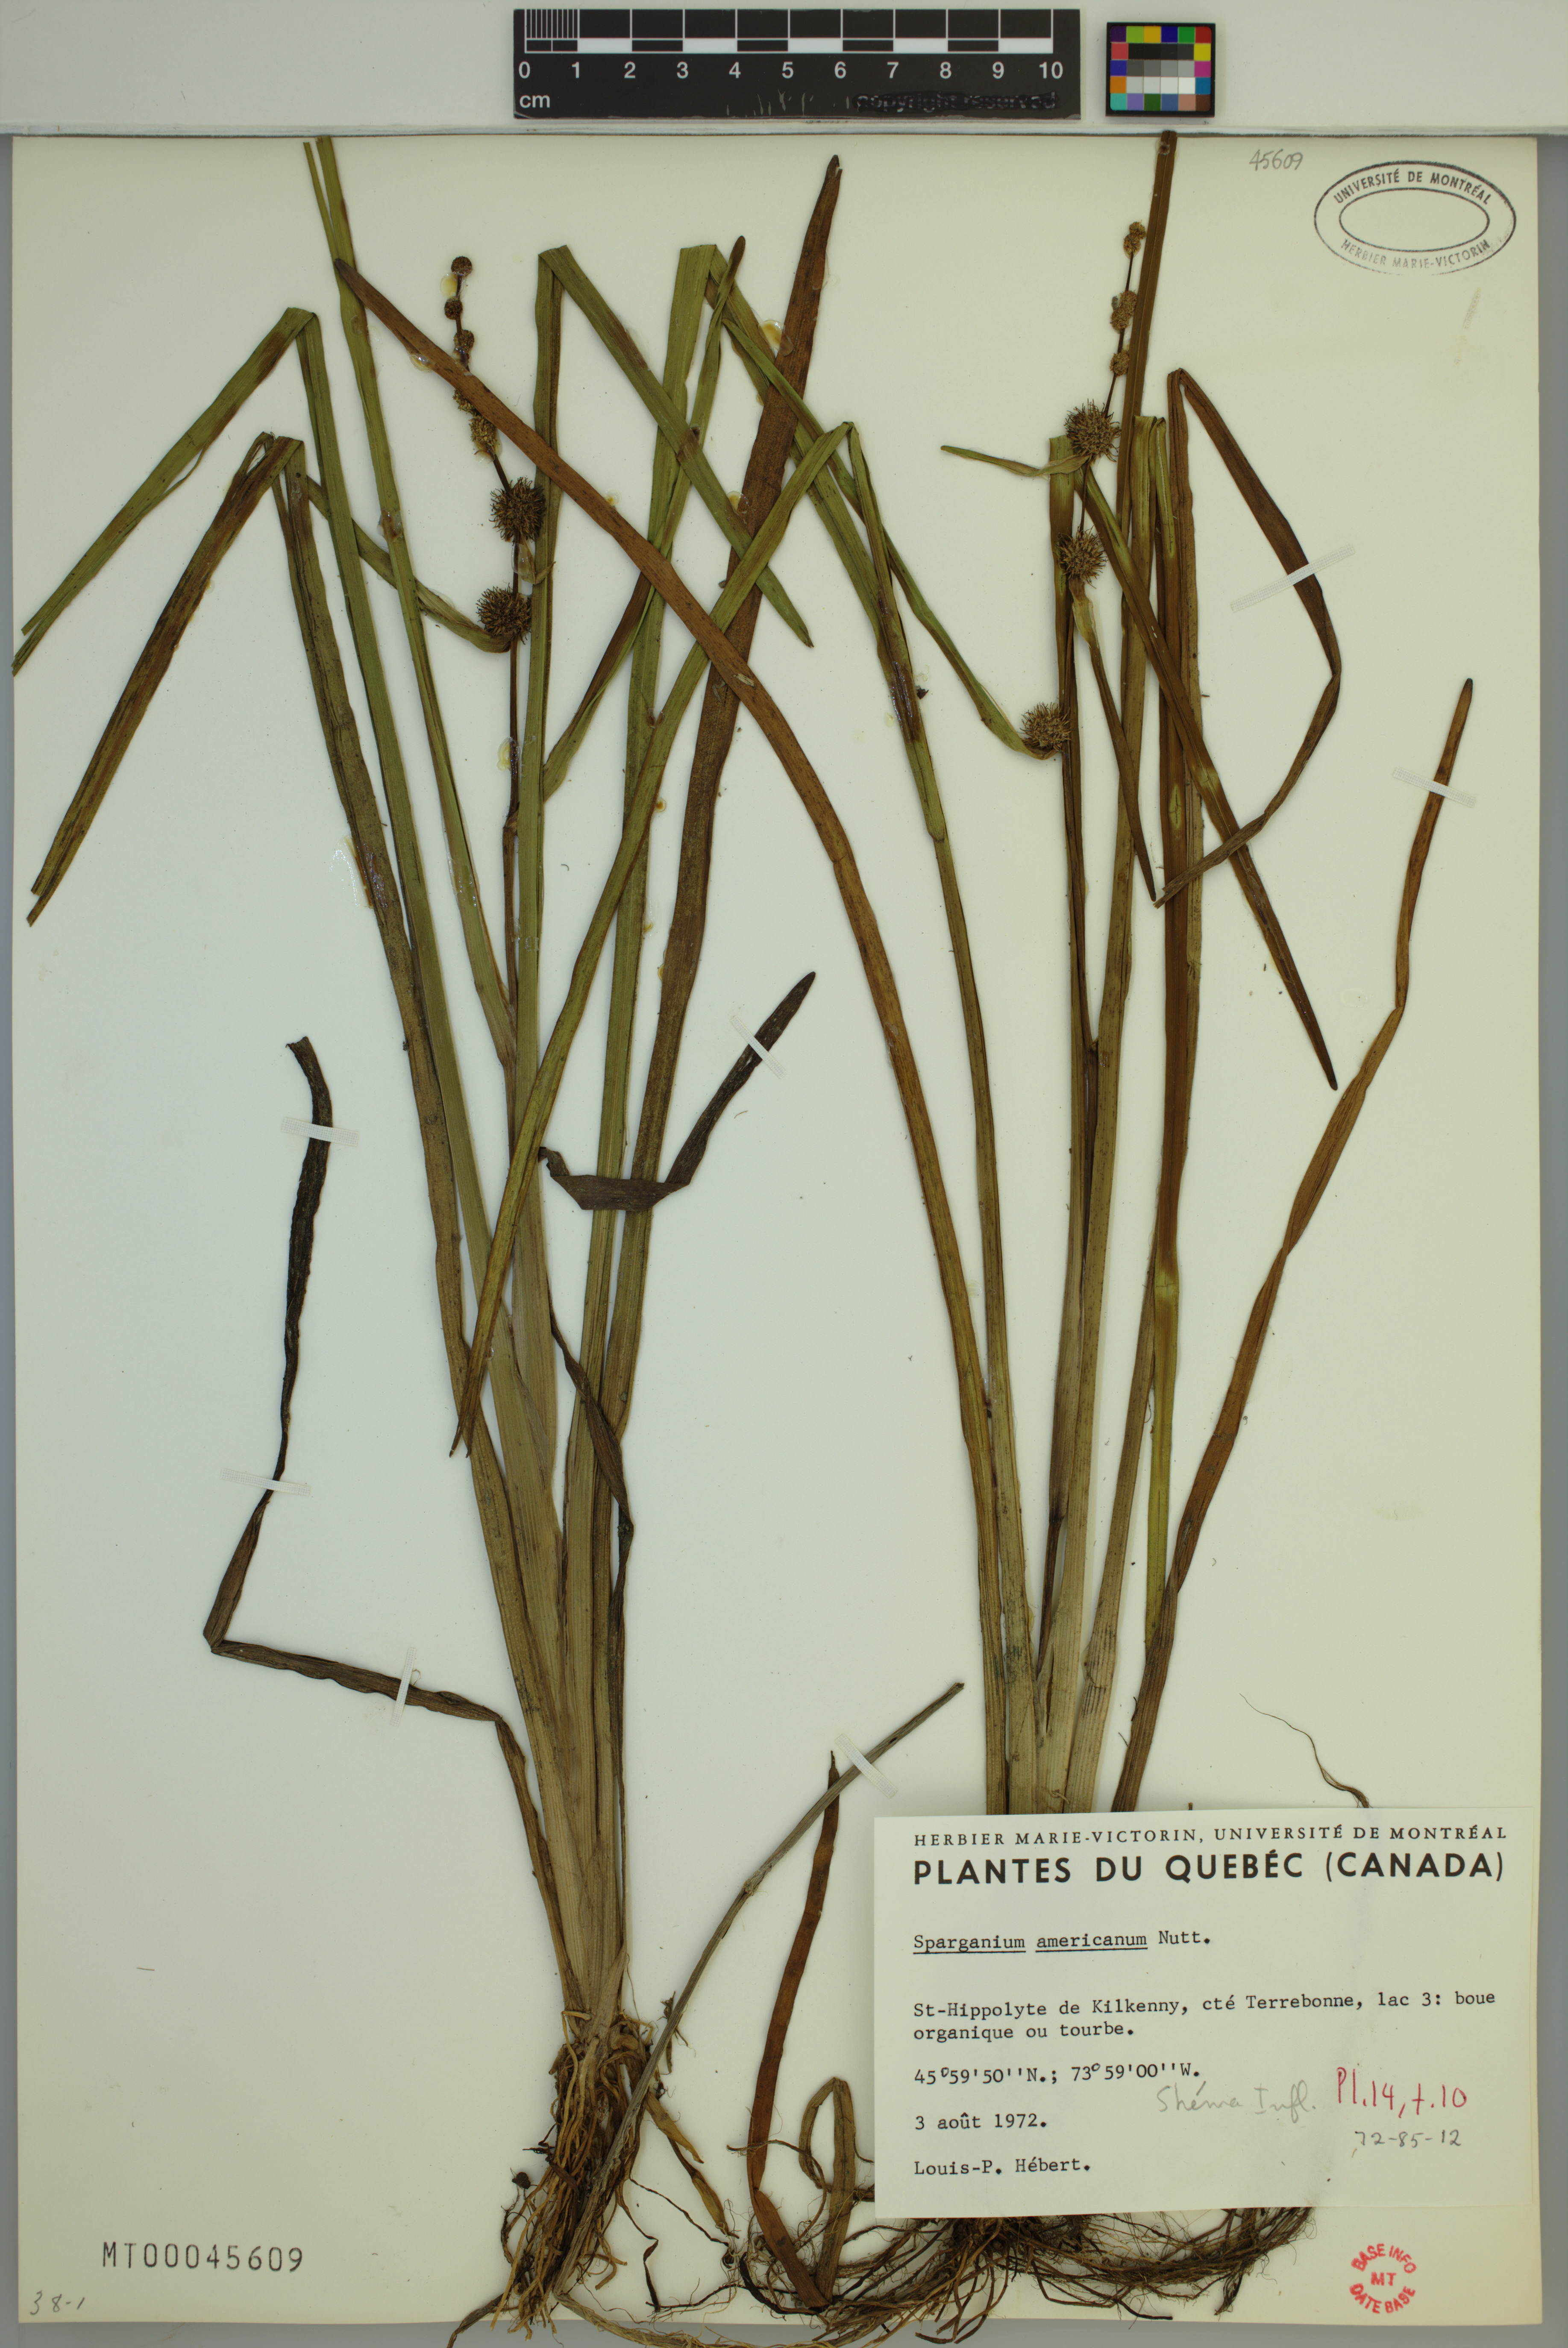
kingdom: Plantae
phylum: Tracheophyta
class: Liliopsida
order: Poales
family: Typhaceae
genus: Sparganium
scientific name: Sparganium americanum
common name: American burreed
